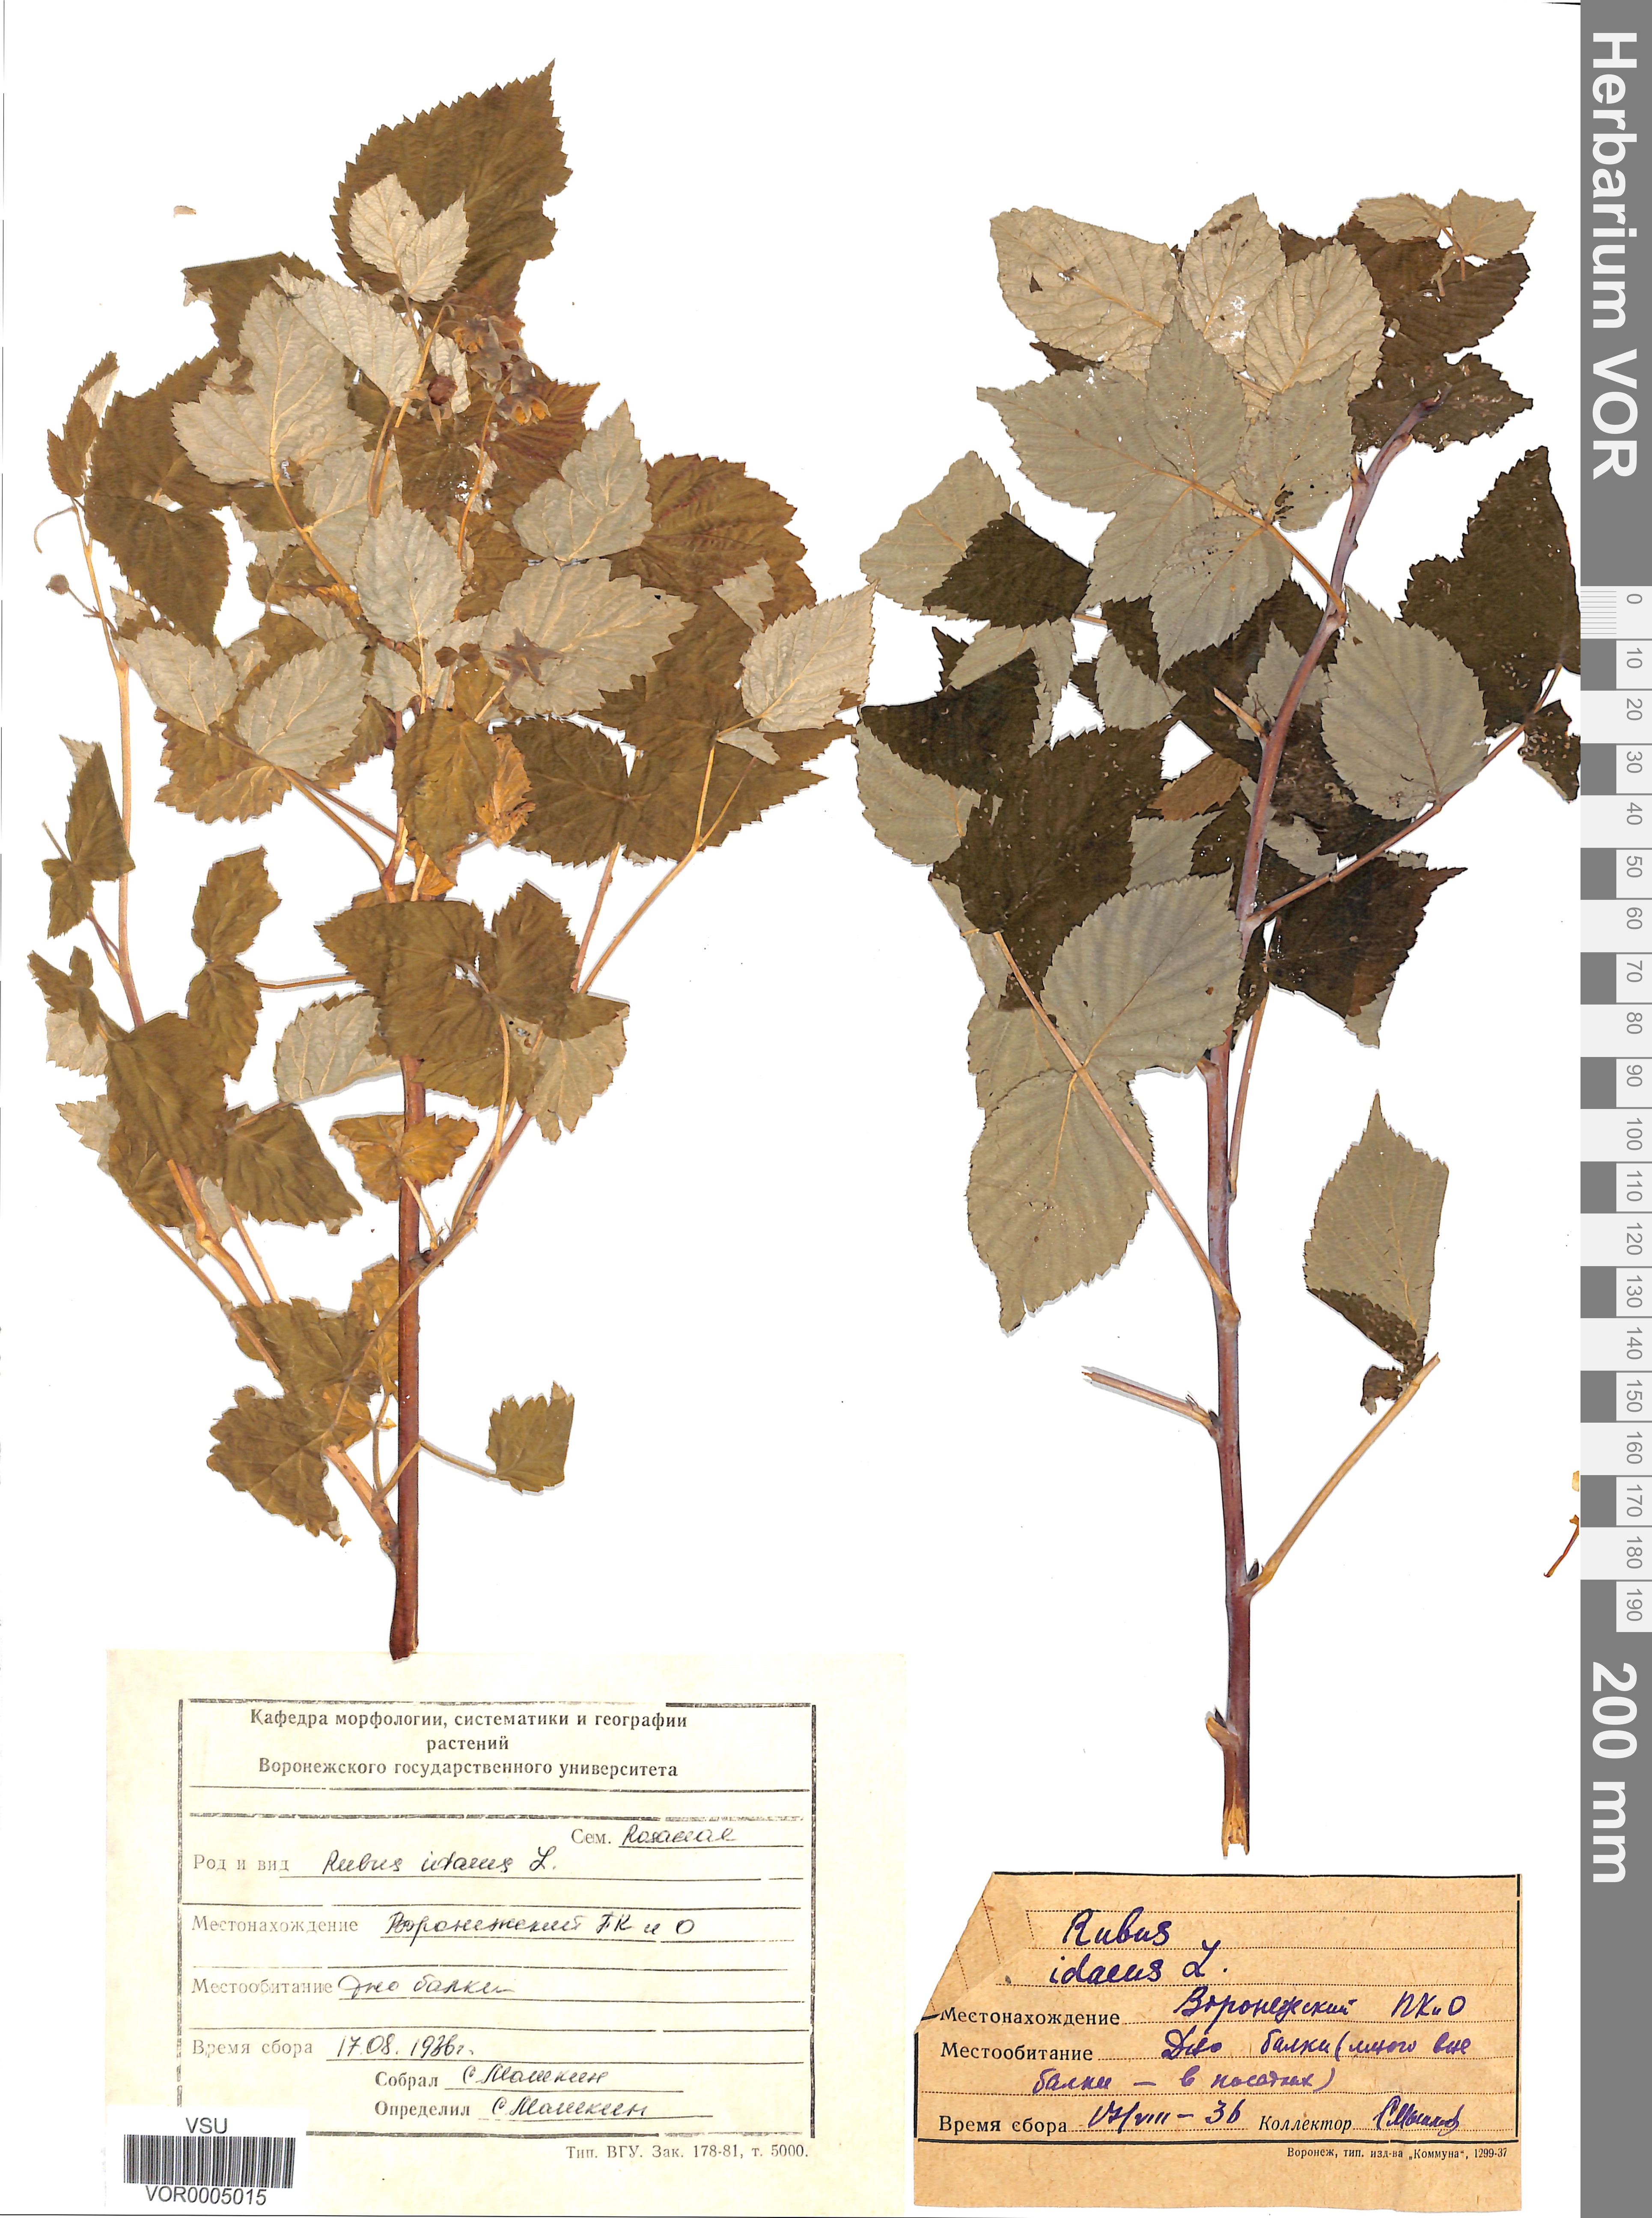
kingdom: Plantae
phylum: Tracheophyta
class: Magnoliopsida
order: Rosales
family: Rosaceae
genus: Rubus
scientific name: Rubus idaeus
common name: Raspberry
